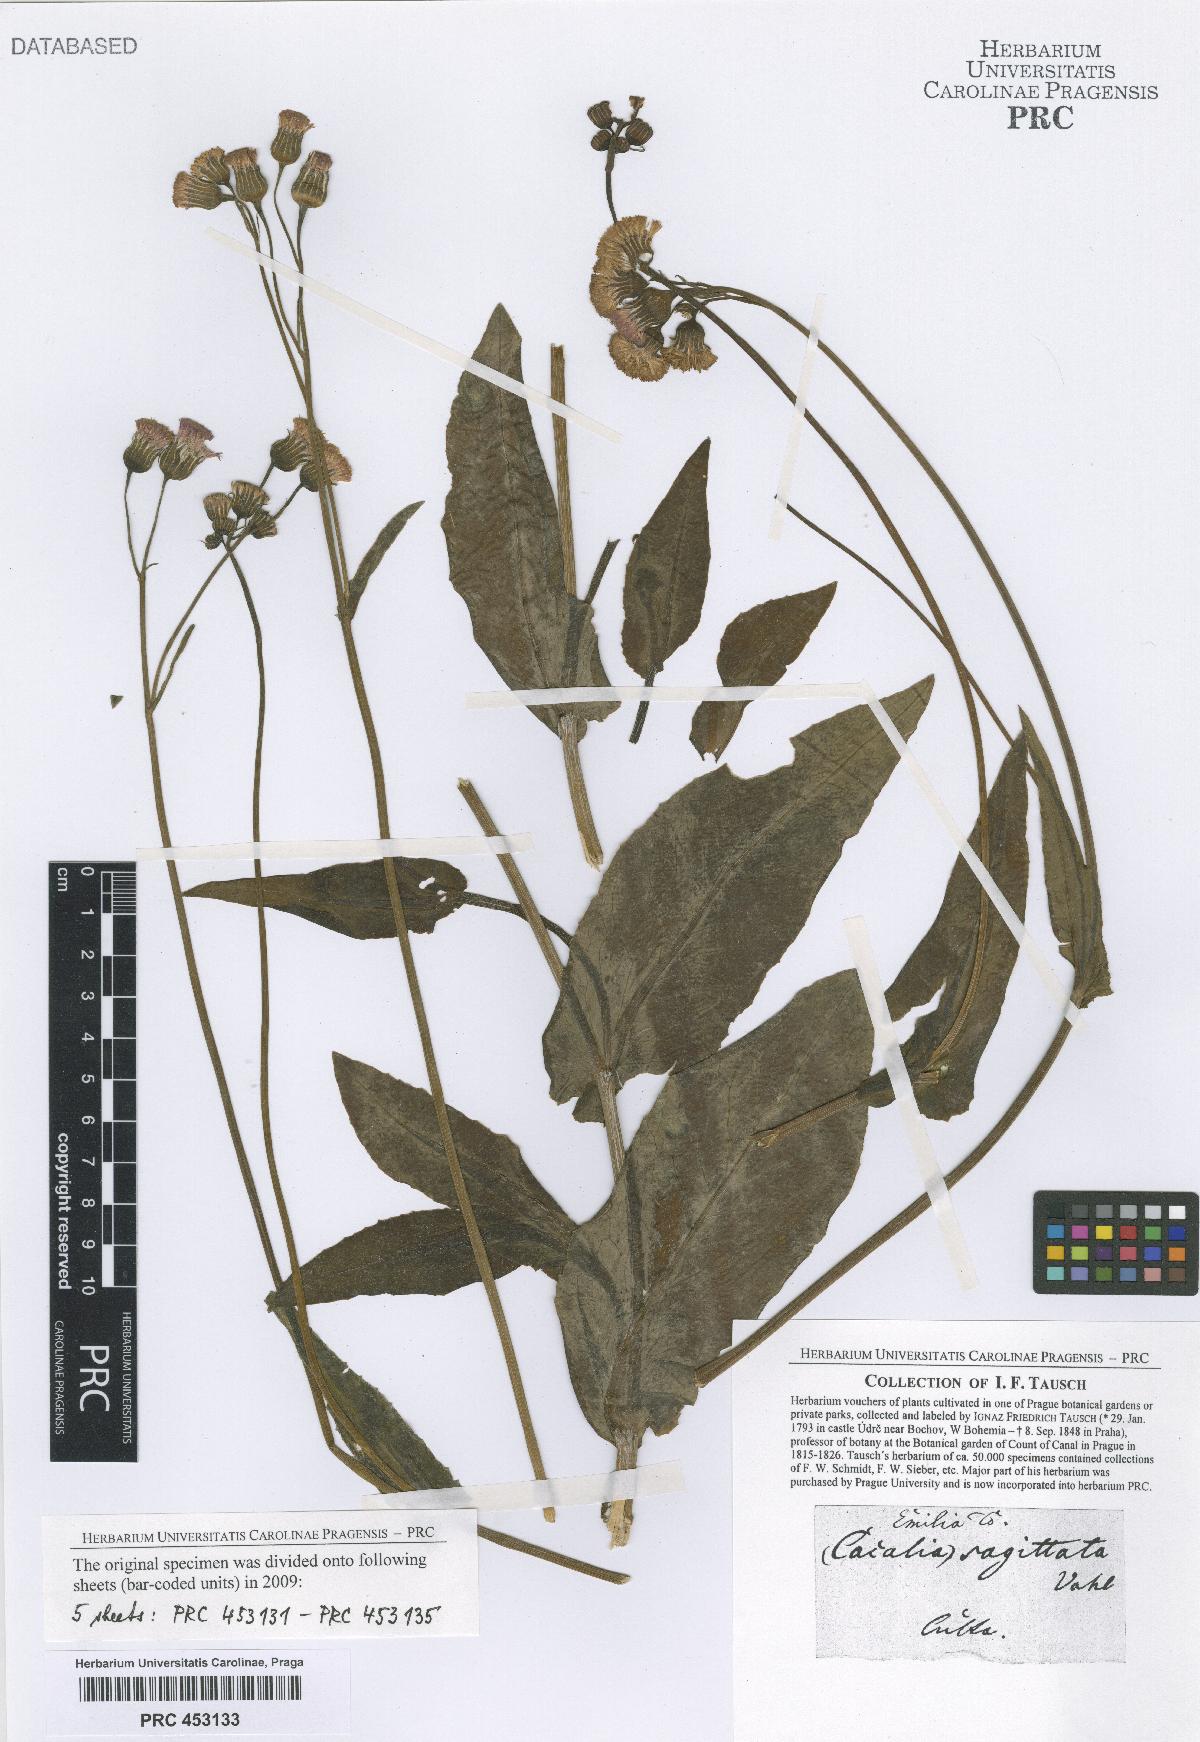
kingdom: Plantae
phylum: Tracheophyta
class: Magnoliopsida
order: Asterales
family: Asteraceae
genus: Adenostyles
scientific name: Adenostyles Cacalia scandens
